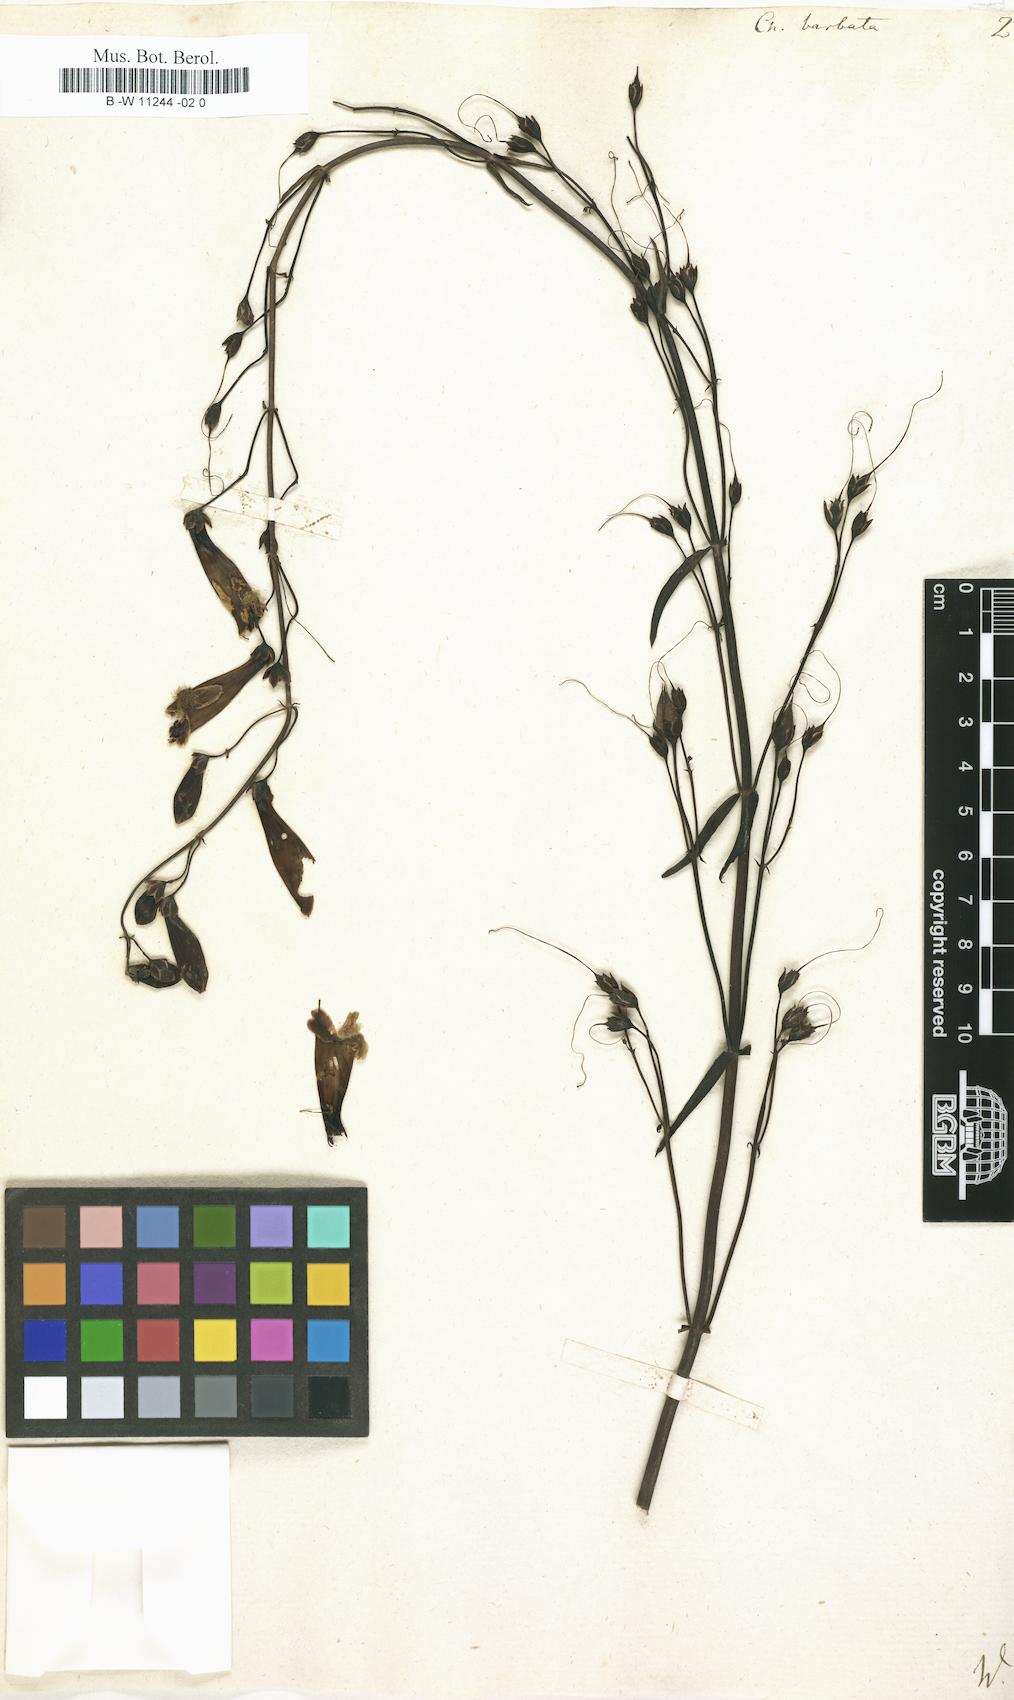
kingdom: Plantae
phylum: Tracheophyta
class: Magnoliopsida
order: Lamiales
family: Plantaginaceae
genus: Penstemon
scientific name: Penstemon barbatus
